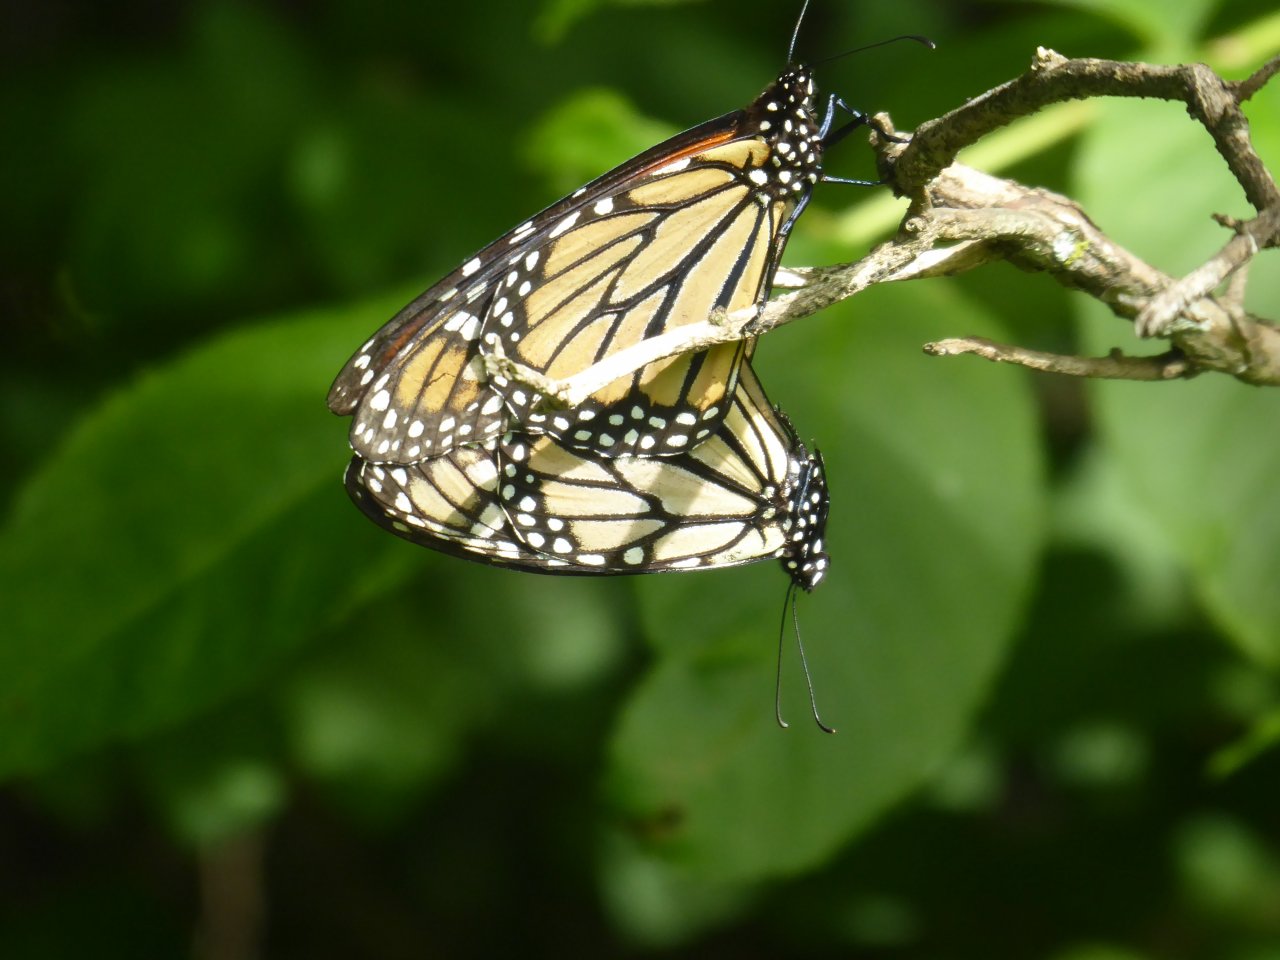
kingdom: Animalia
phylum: Arthropoda
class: Insecta
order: Lepidoptera
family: Nymphalidae
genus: Danaus
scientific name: Danaus plexippus
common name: Monarch
